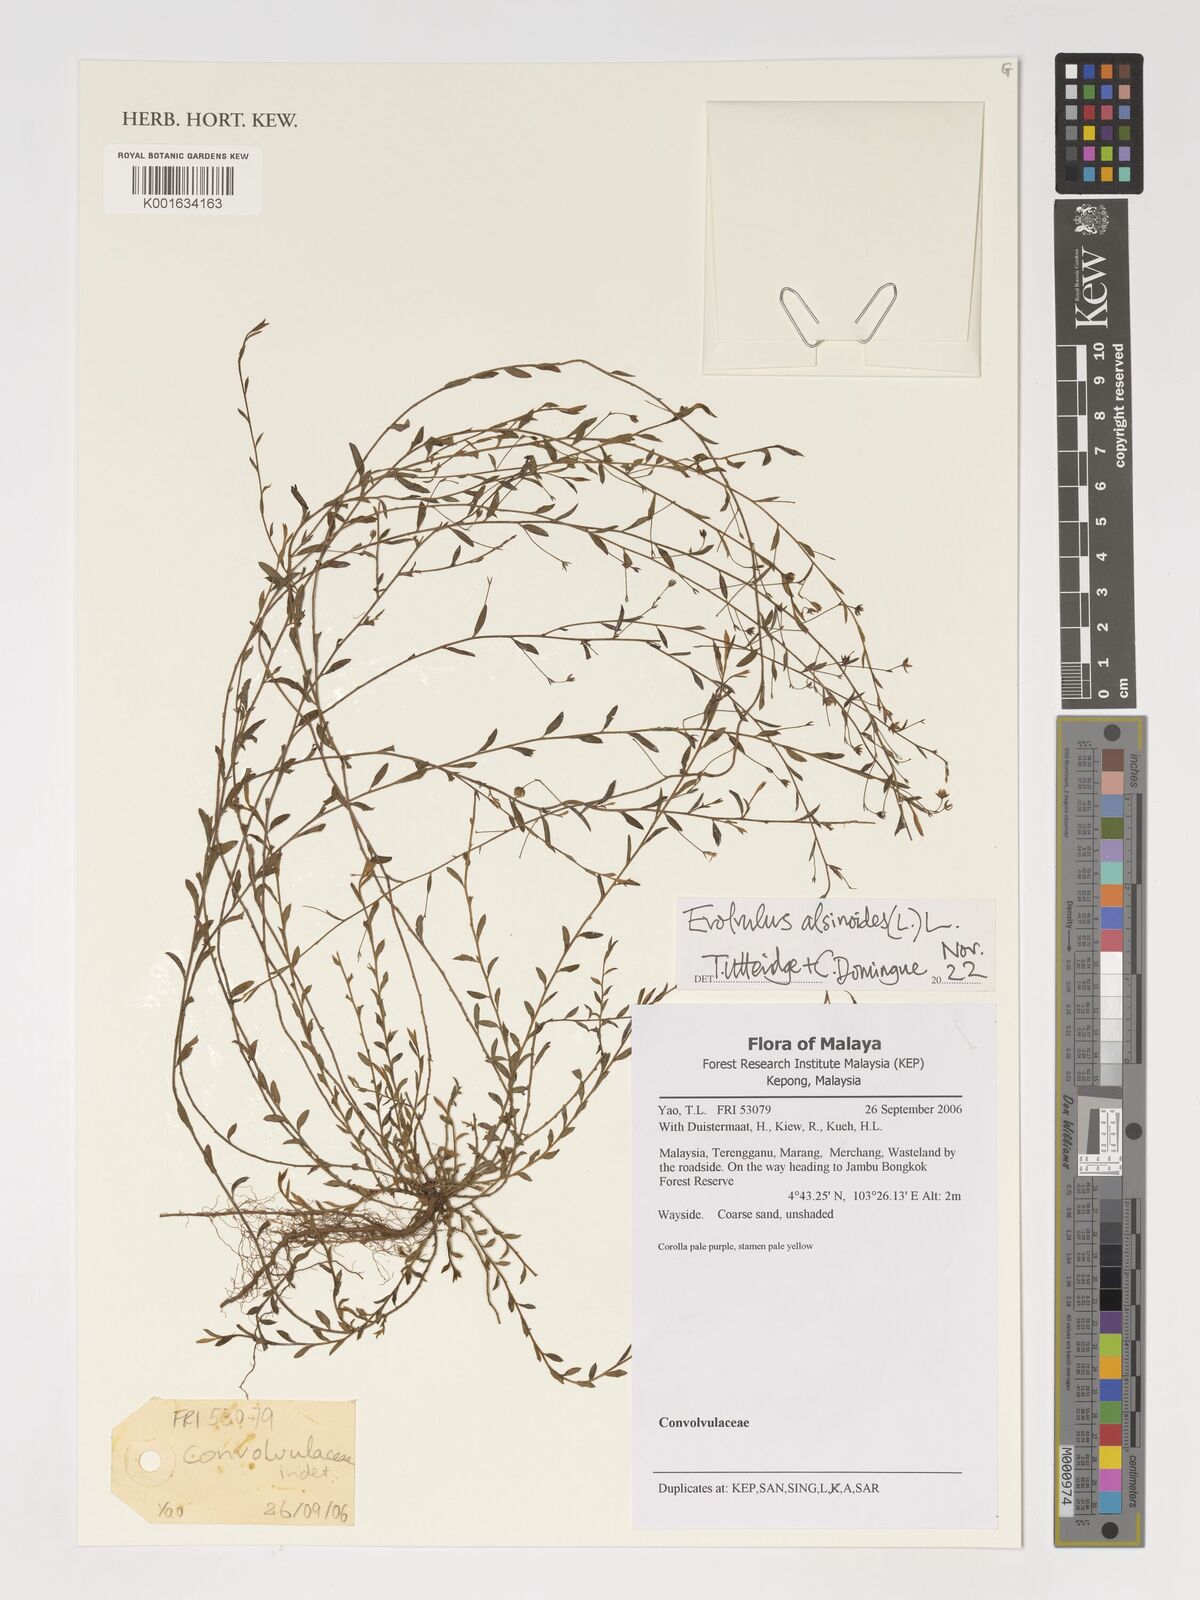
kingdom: Plantae
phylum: Tracheophyta
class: Magnoliopsida
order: Solanales
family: Convolvulaceae
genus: Evolvulus
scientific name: Evolvulus alsinoides
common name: Slender dwarf morning-glory
